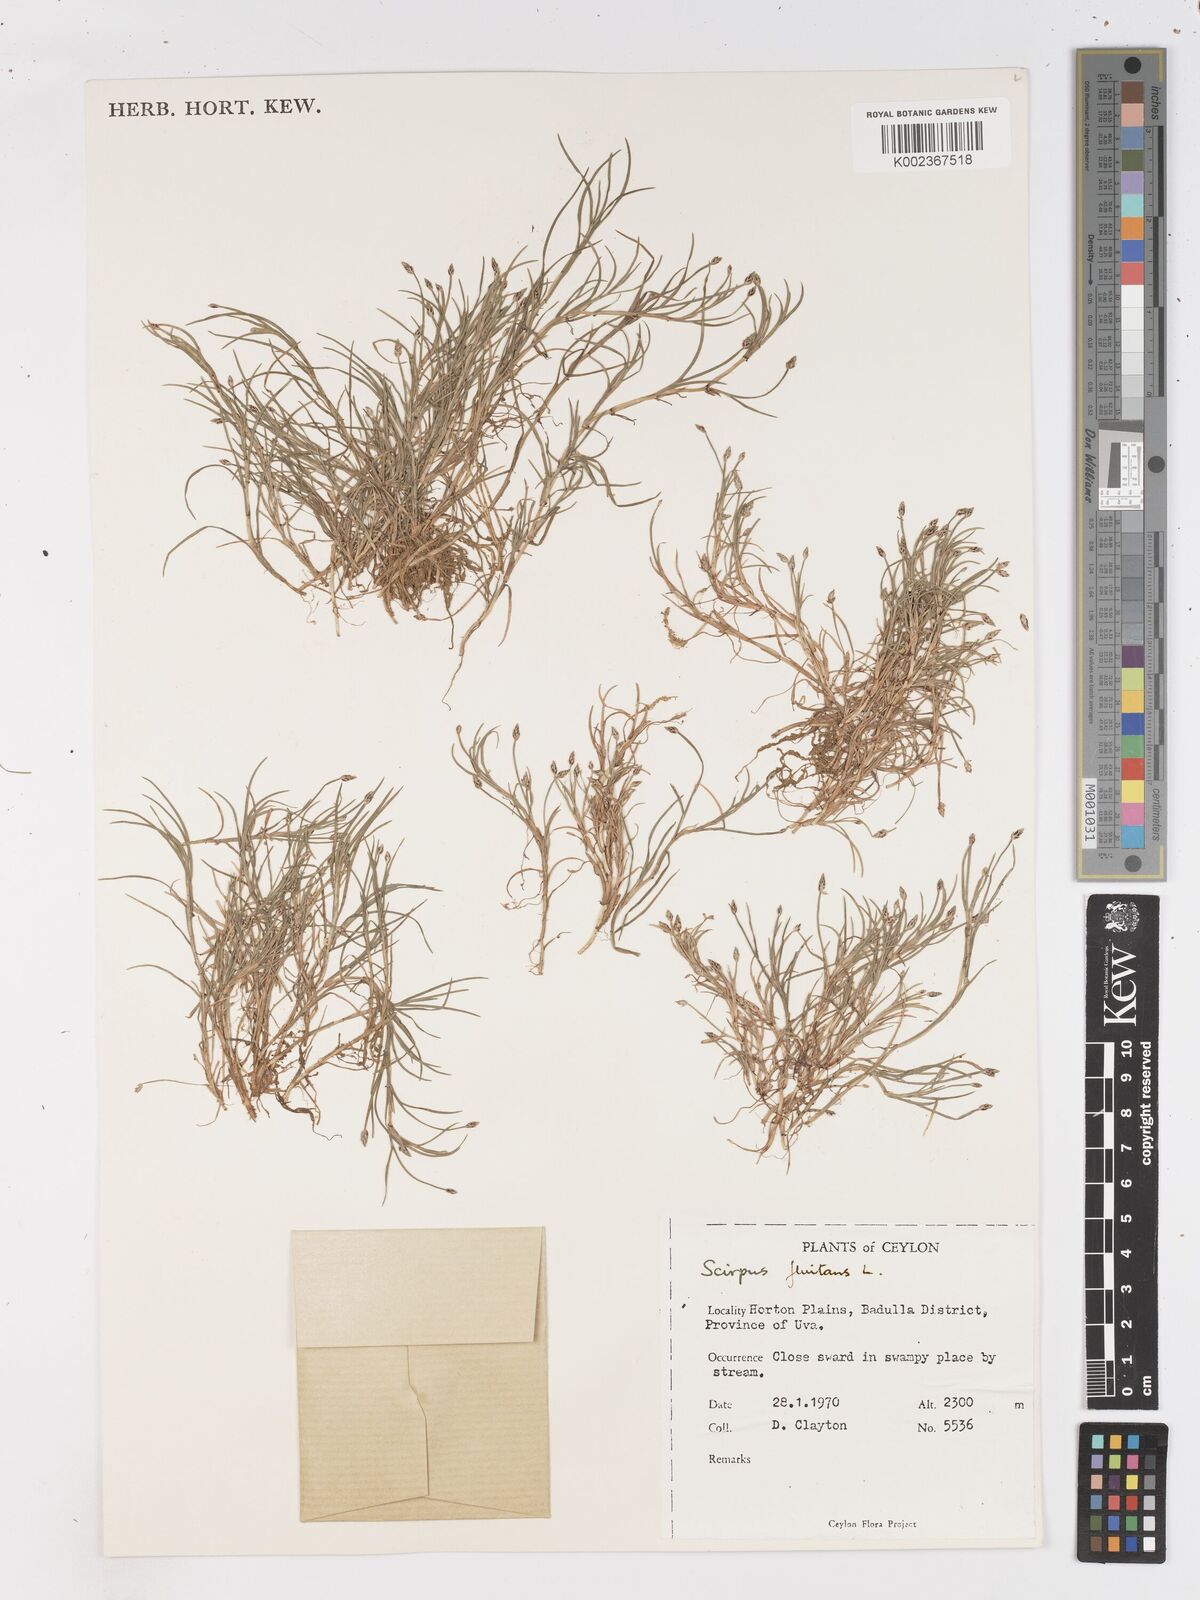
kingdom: Plantae
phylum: Tracheophyta
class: Liliopsida
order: Poales
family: Cyperaceae
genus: Isolepis
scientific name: Isolepis fluitans
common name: Floating club-rush
